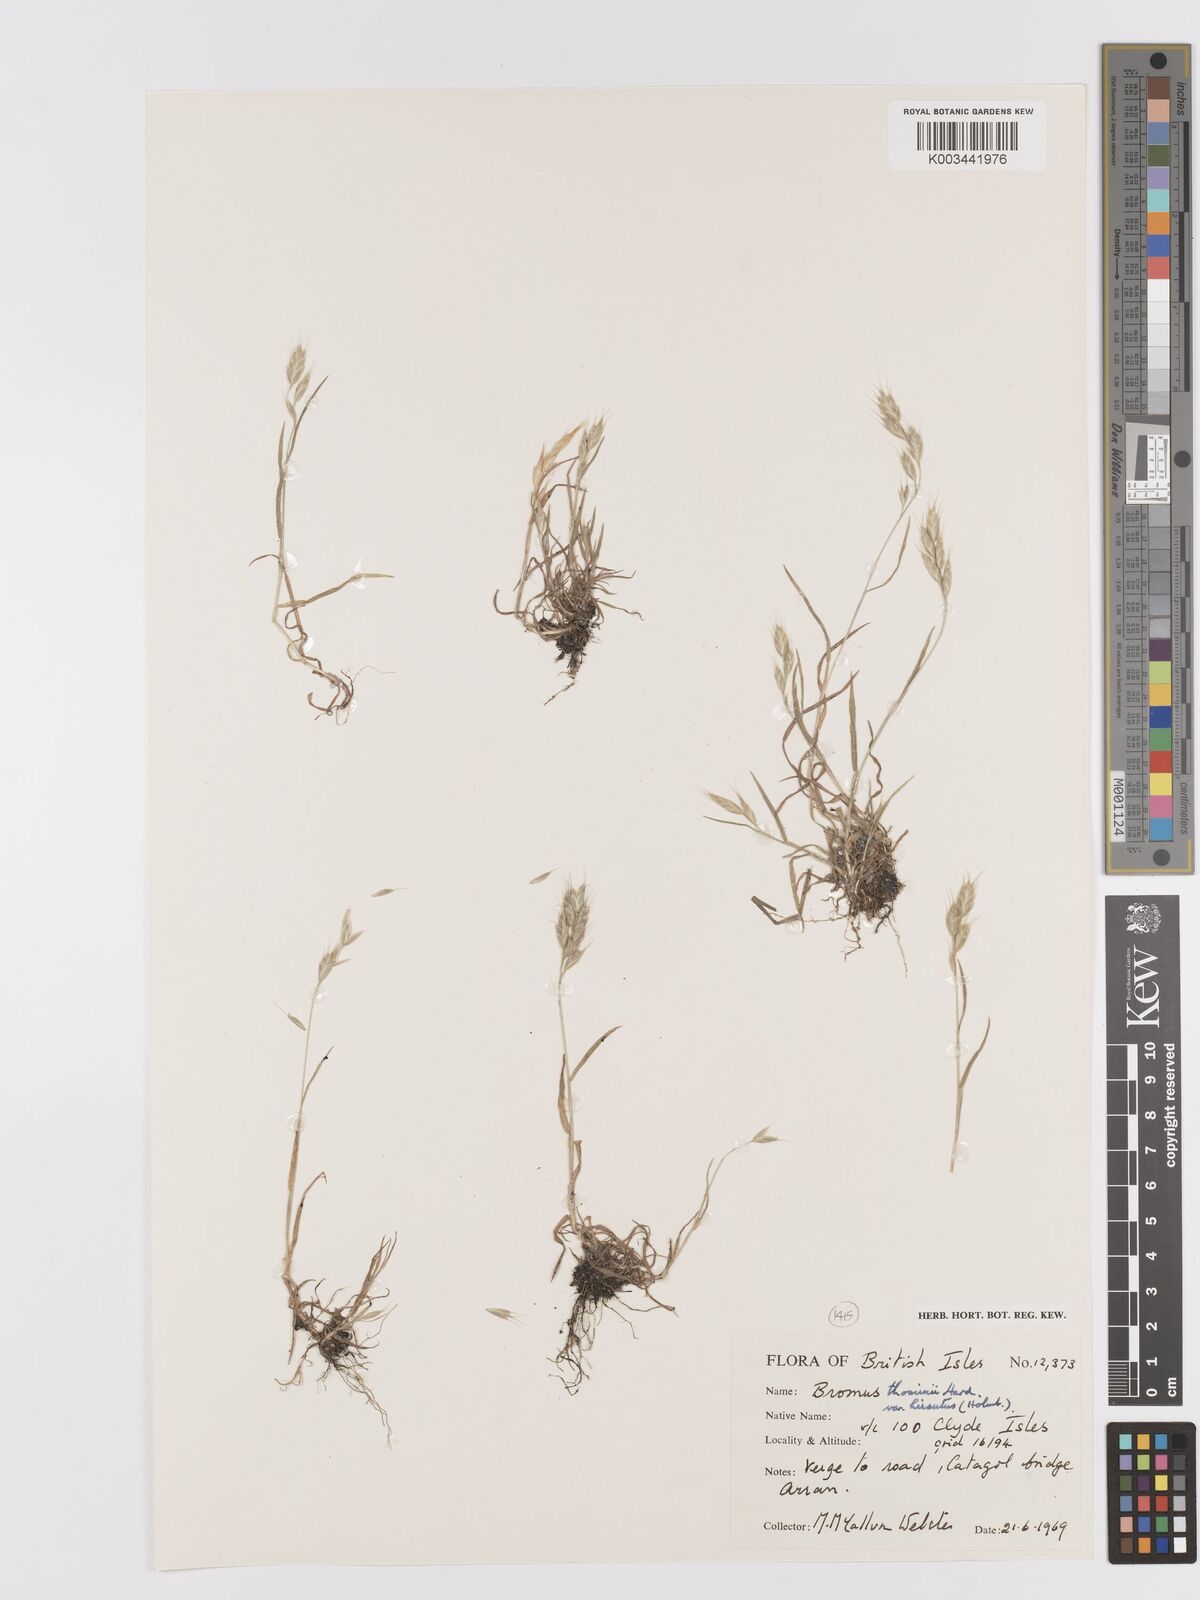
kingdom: Plantae
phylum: Tracheophyta
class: Liliopsida
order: Poales
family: Poaceae
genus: Bromus
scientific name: Bromus hordeaceus
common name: Soft brome
